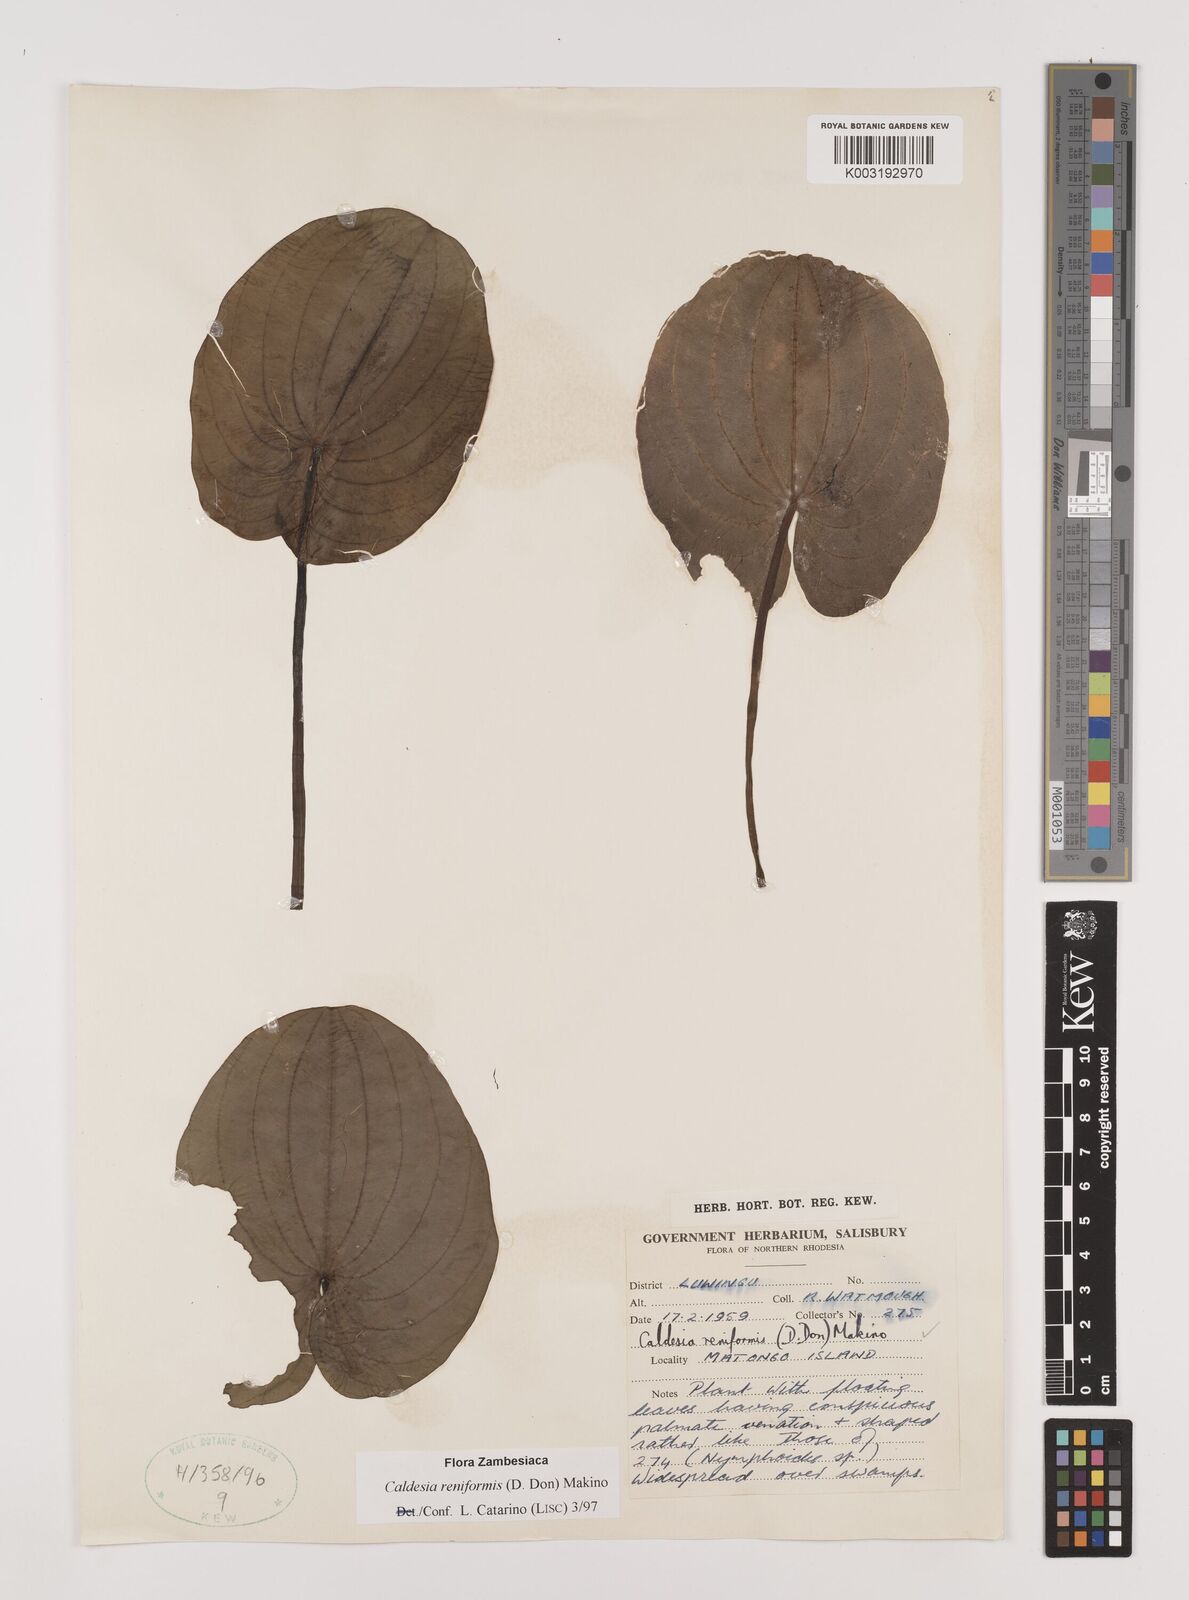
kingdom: Plantae
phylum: Tracheophyta
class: Liliopsida
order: Alismatales
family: Alismataceae
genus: Caldesia
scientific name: Caldesia parnassifolia
